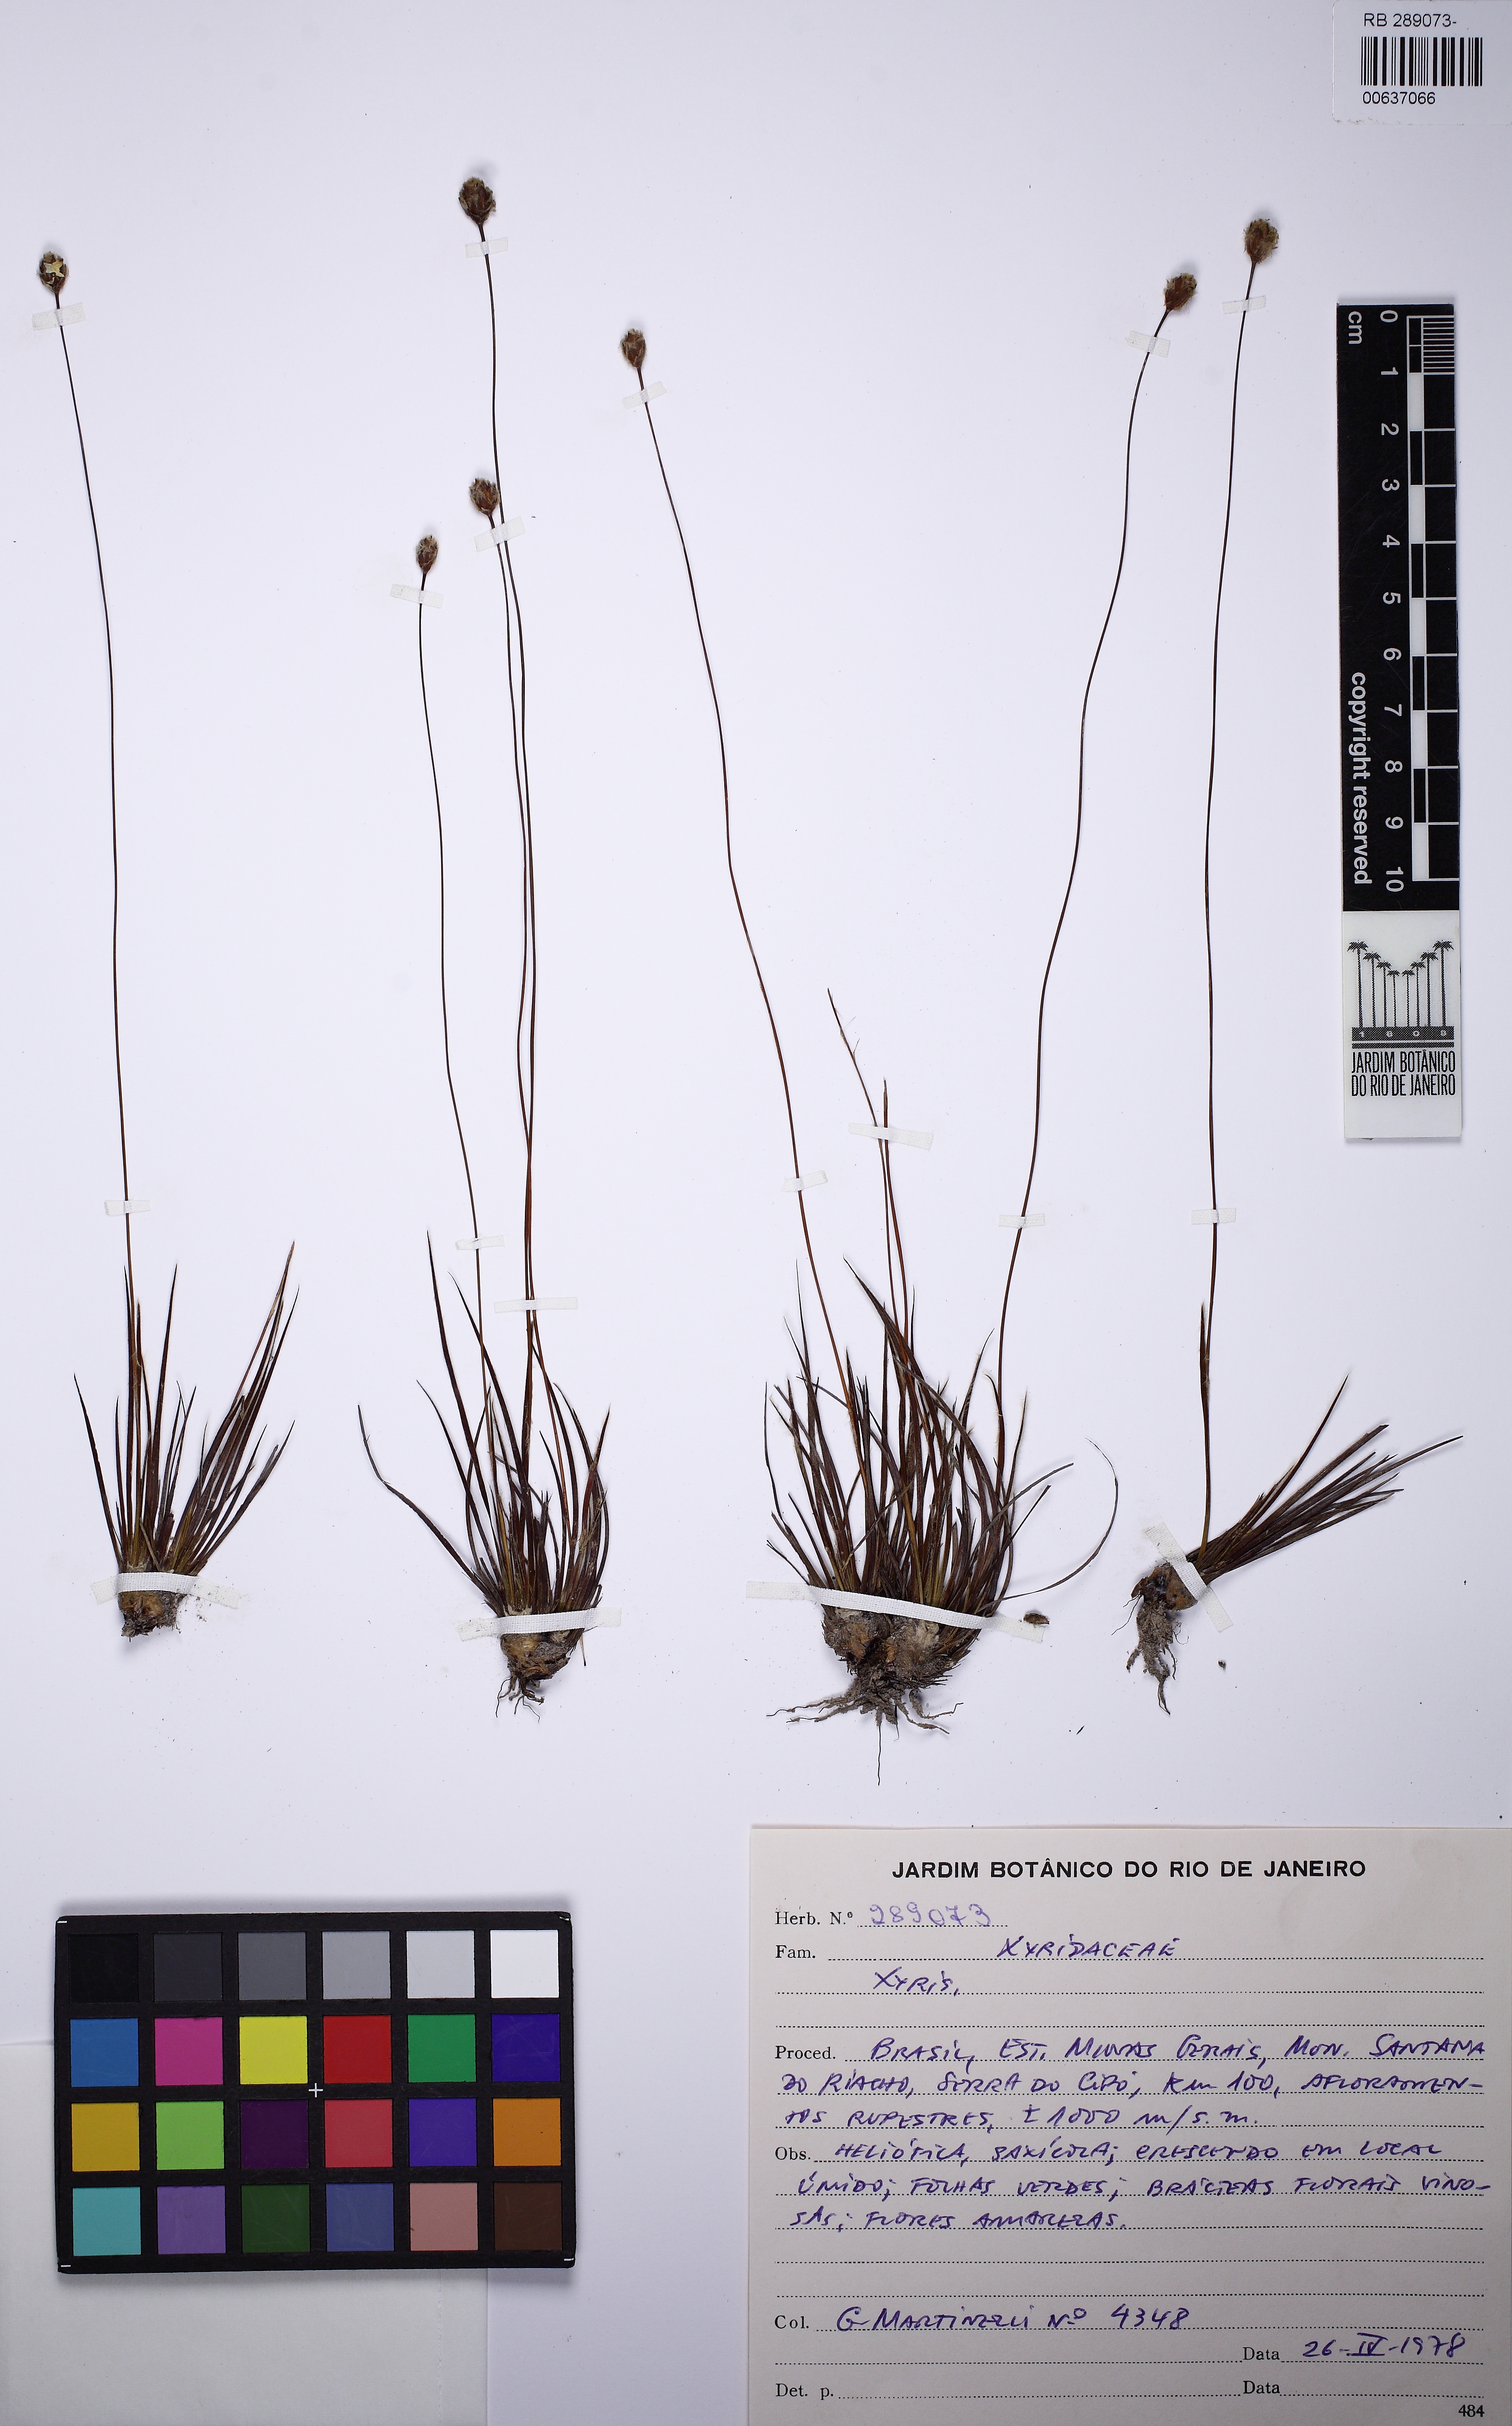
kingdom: Plantae
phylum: Tracheophyta
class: Liliopsida
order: Poales
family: Xyridaceae
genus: Xyris
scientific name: Xyris pilosa
